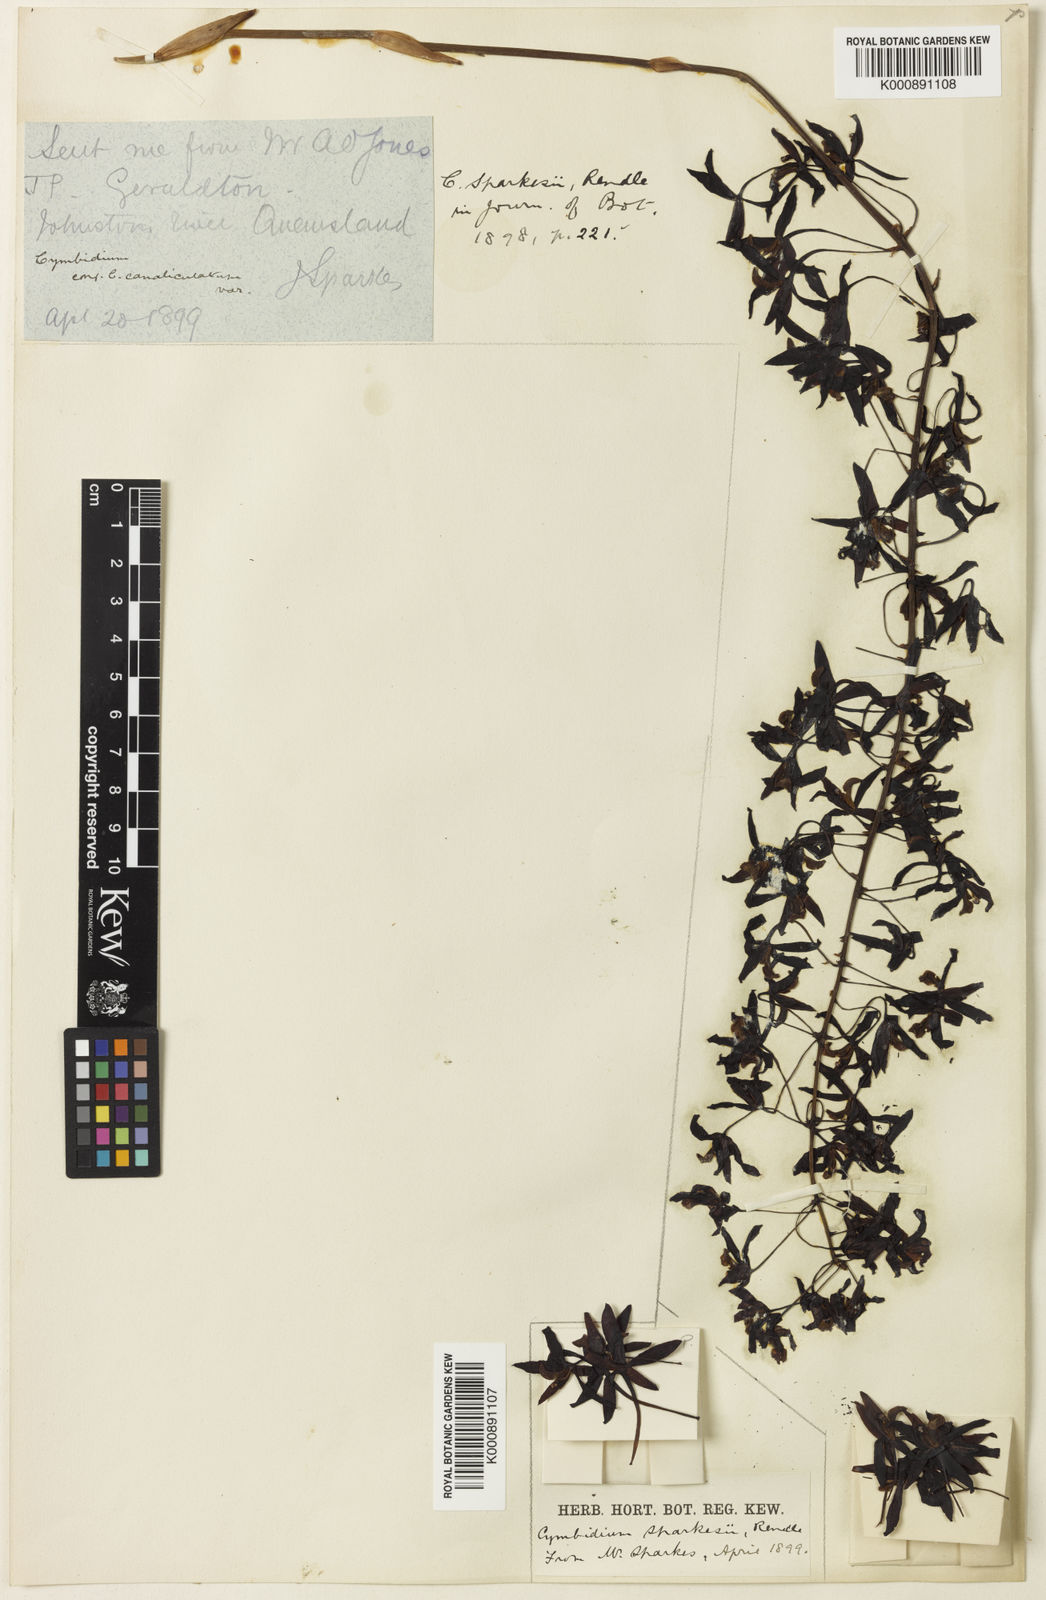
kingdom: Plantae
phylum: Tracheophyta
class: Liliopsida
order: Asparagales
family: Orchidaceae
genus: Cymbidium
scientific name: Cymbidium canaliculatum
